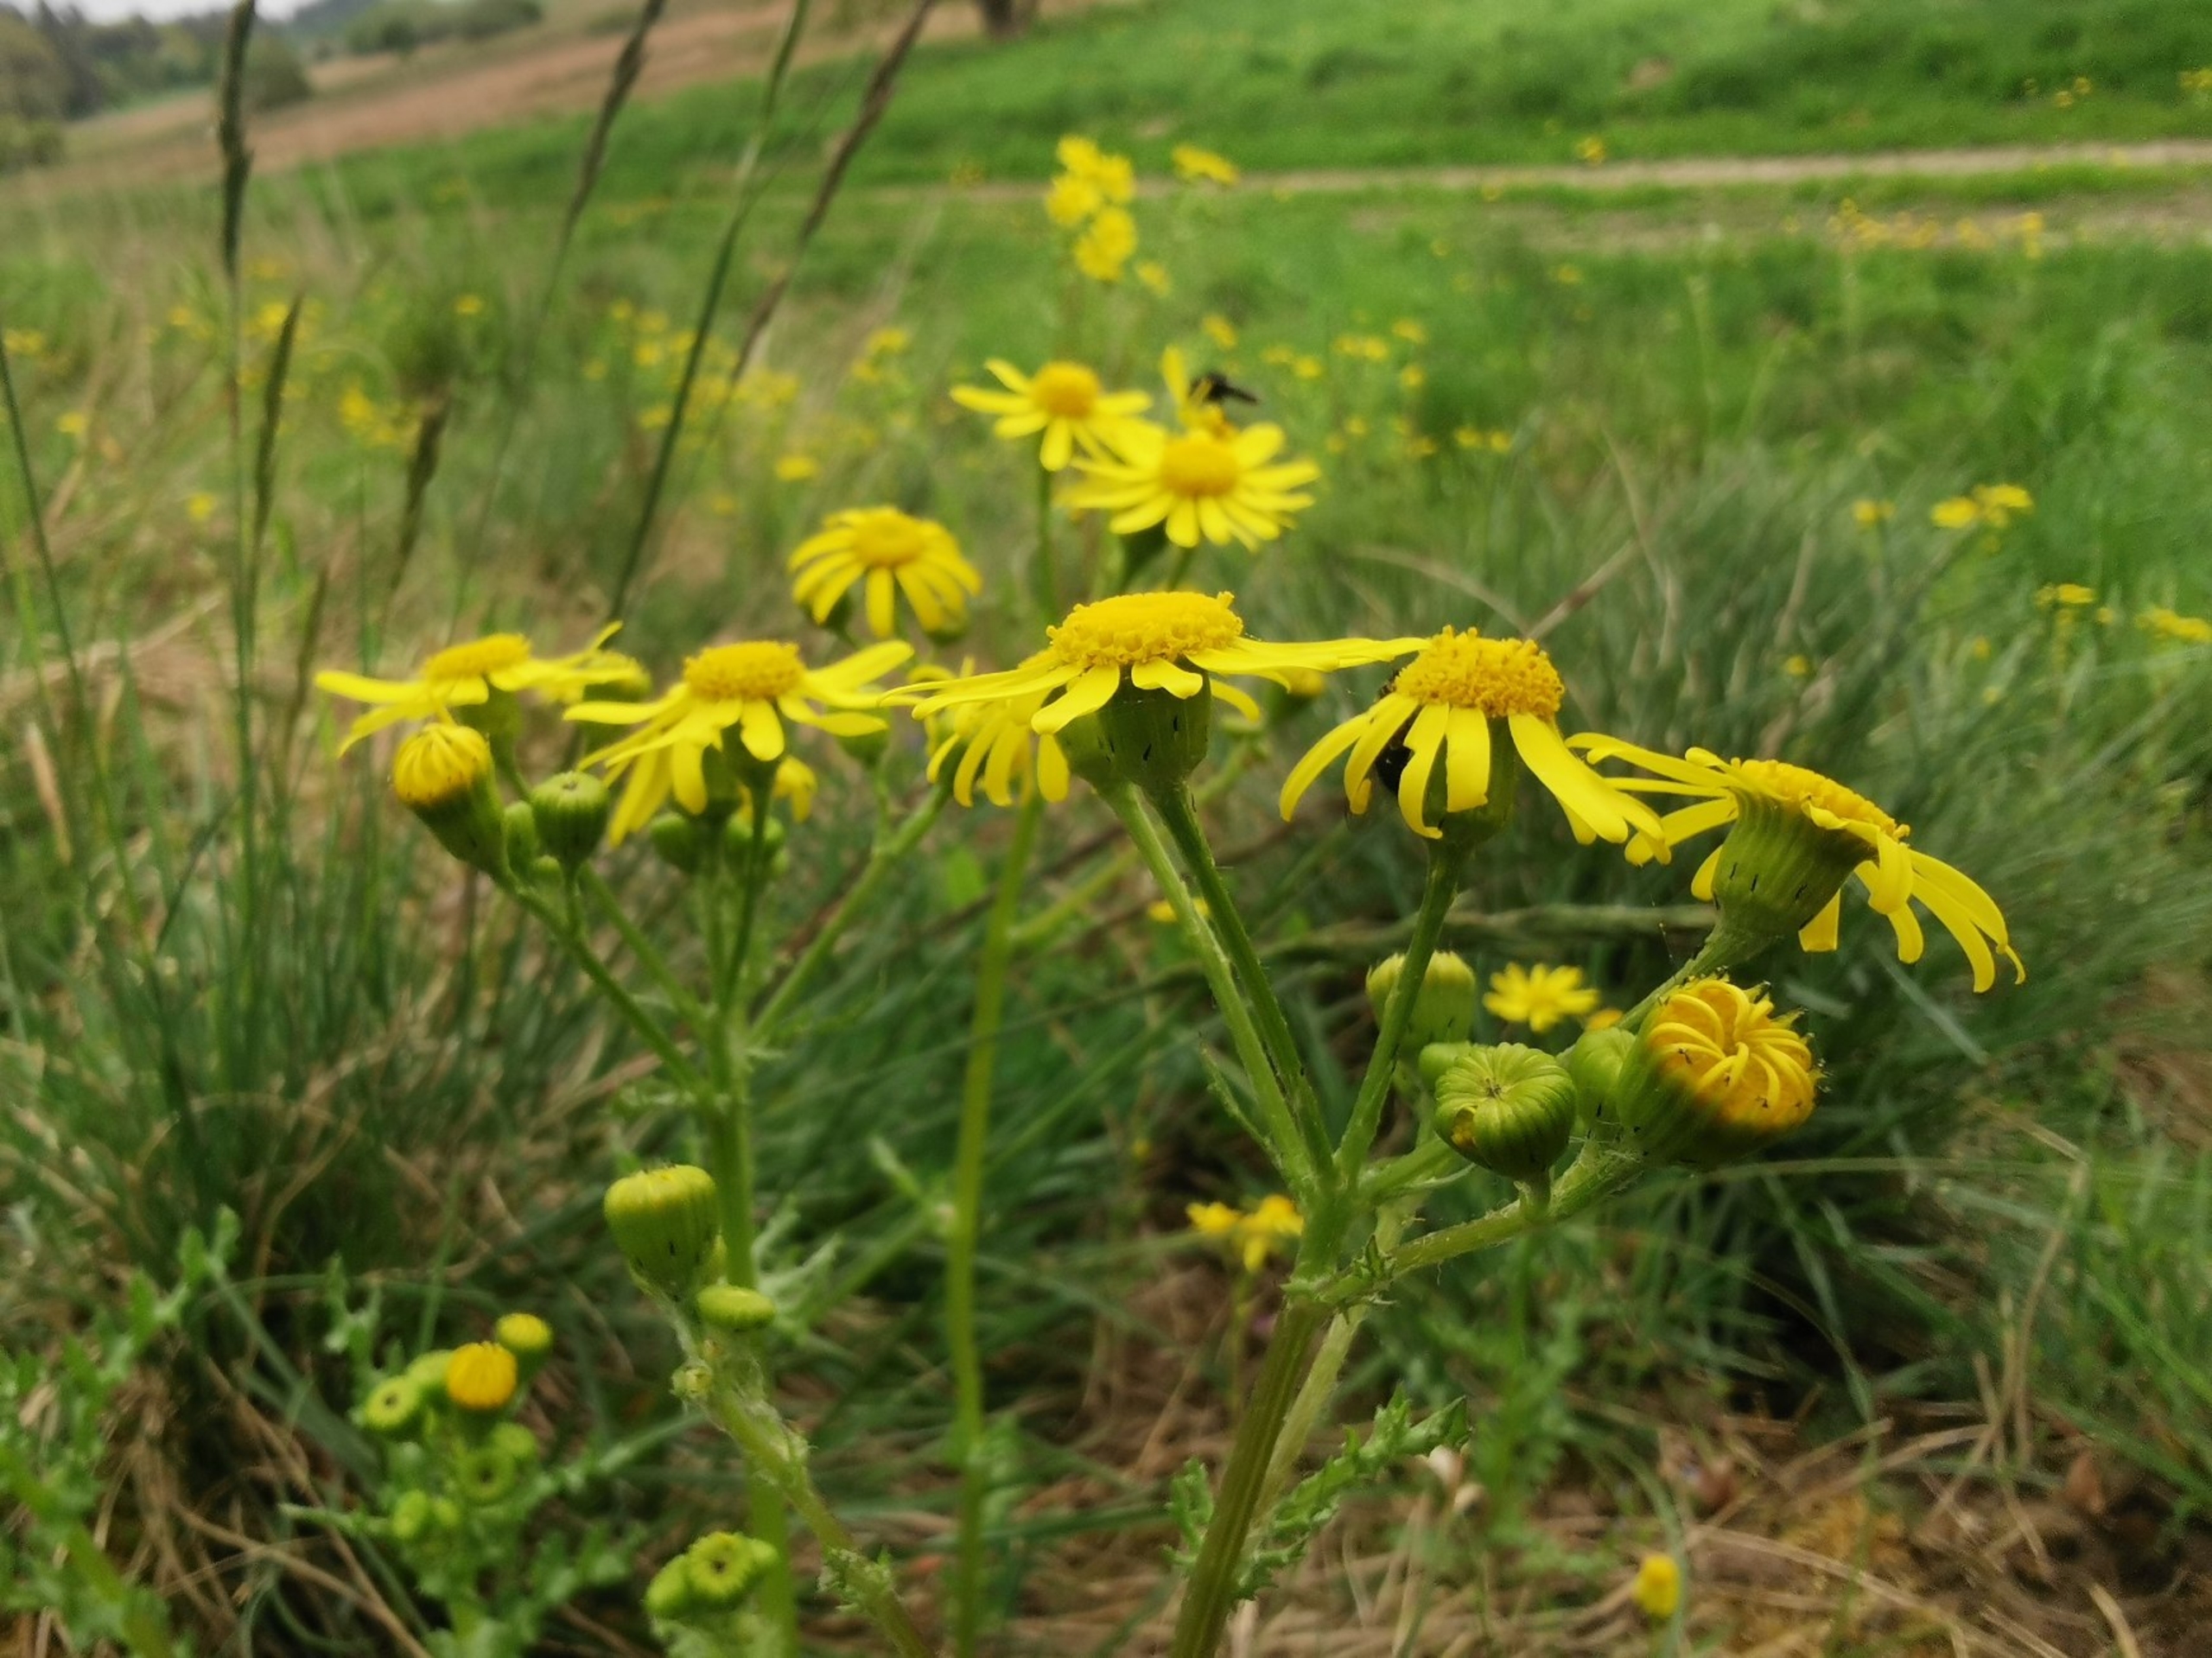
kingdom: Plantae
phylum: Tracheophyta
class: Magnoliopsida
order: Asterales
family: Asteraceae
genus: Senecio
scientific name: Senecio leucanthemifolius
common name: Vår-brandbæger
